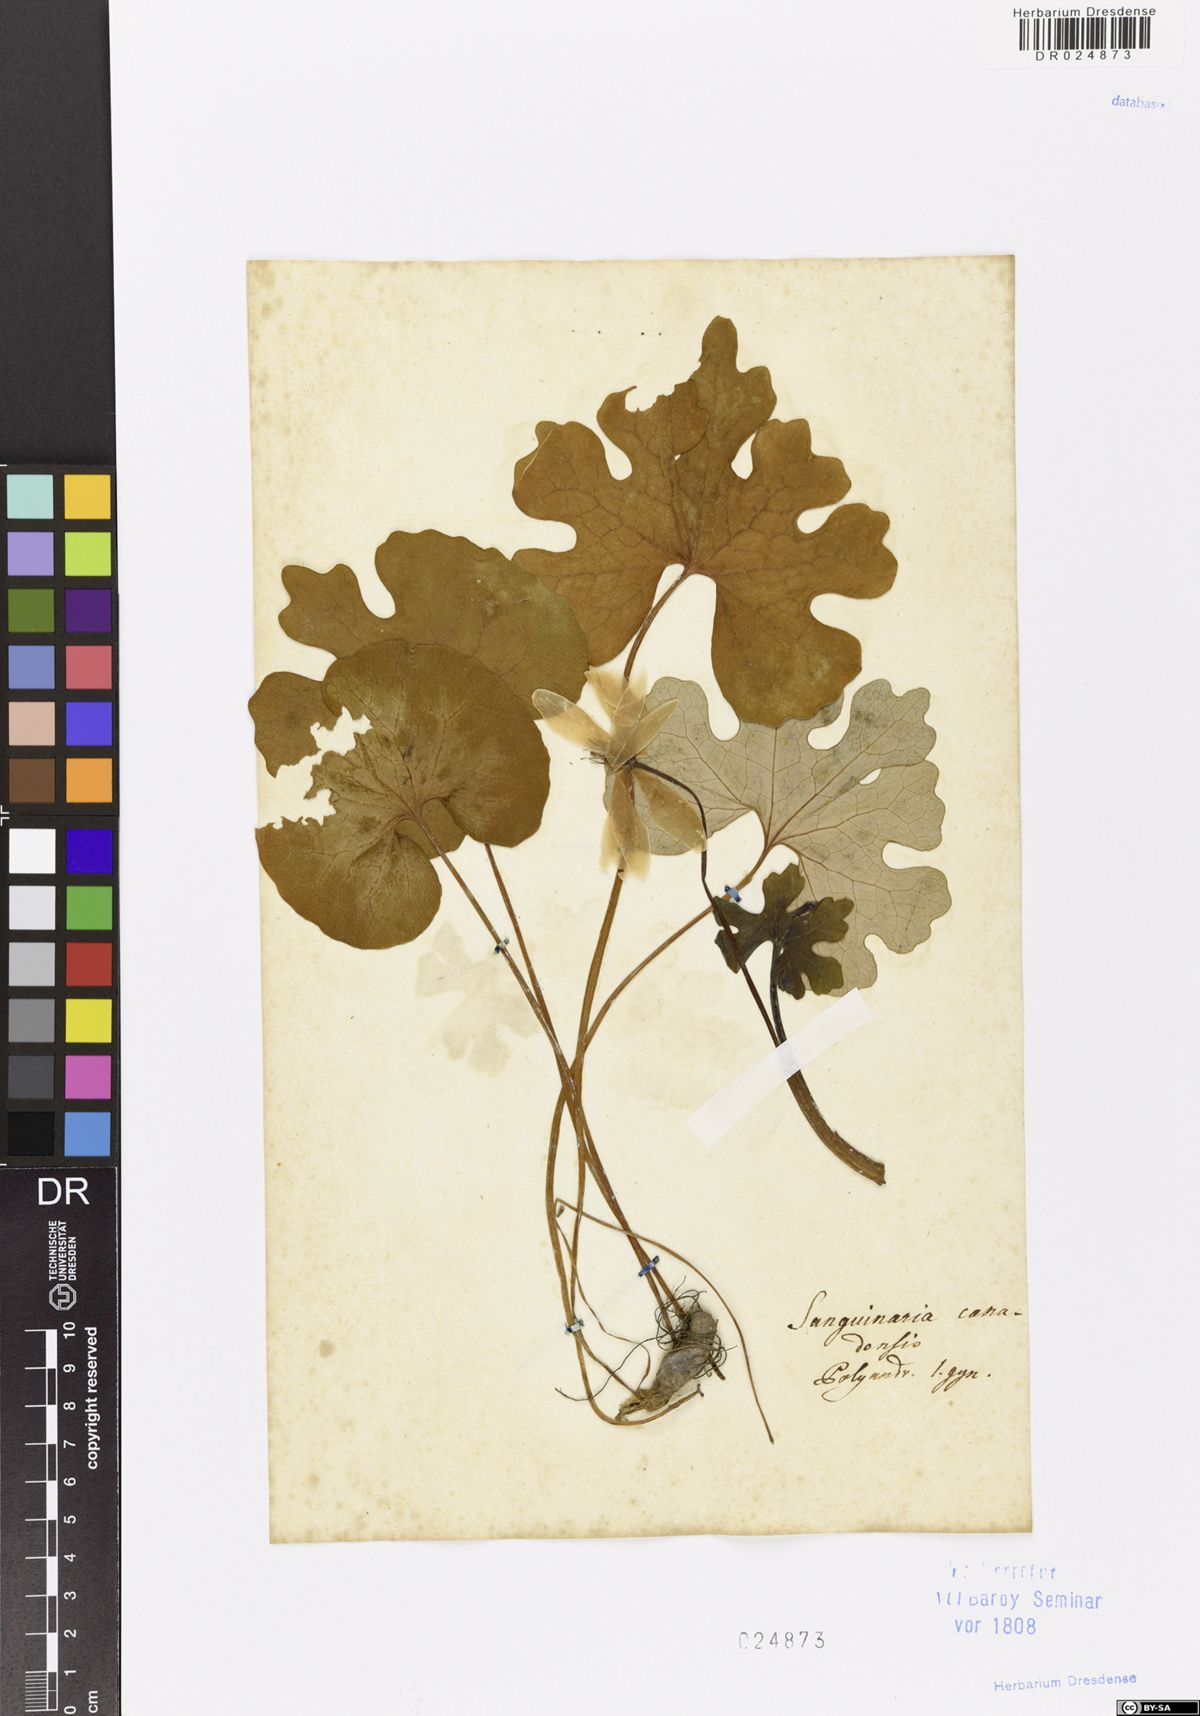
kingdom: Plantae
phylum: Tracheophyta
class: Magnoliopsida
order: Ranunculales
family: Papaveraceae
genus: Sanguinaria
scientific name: Sanguinaria canadensis
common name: Bloodroot
